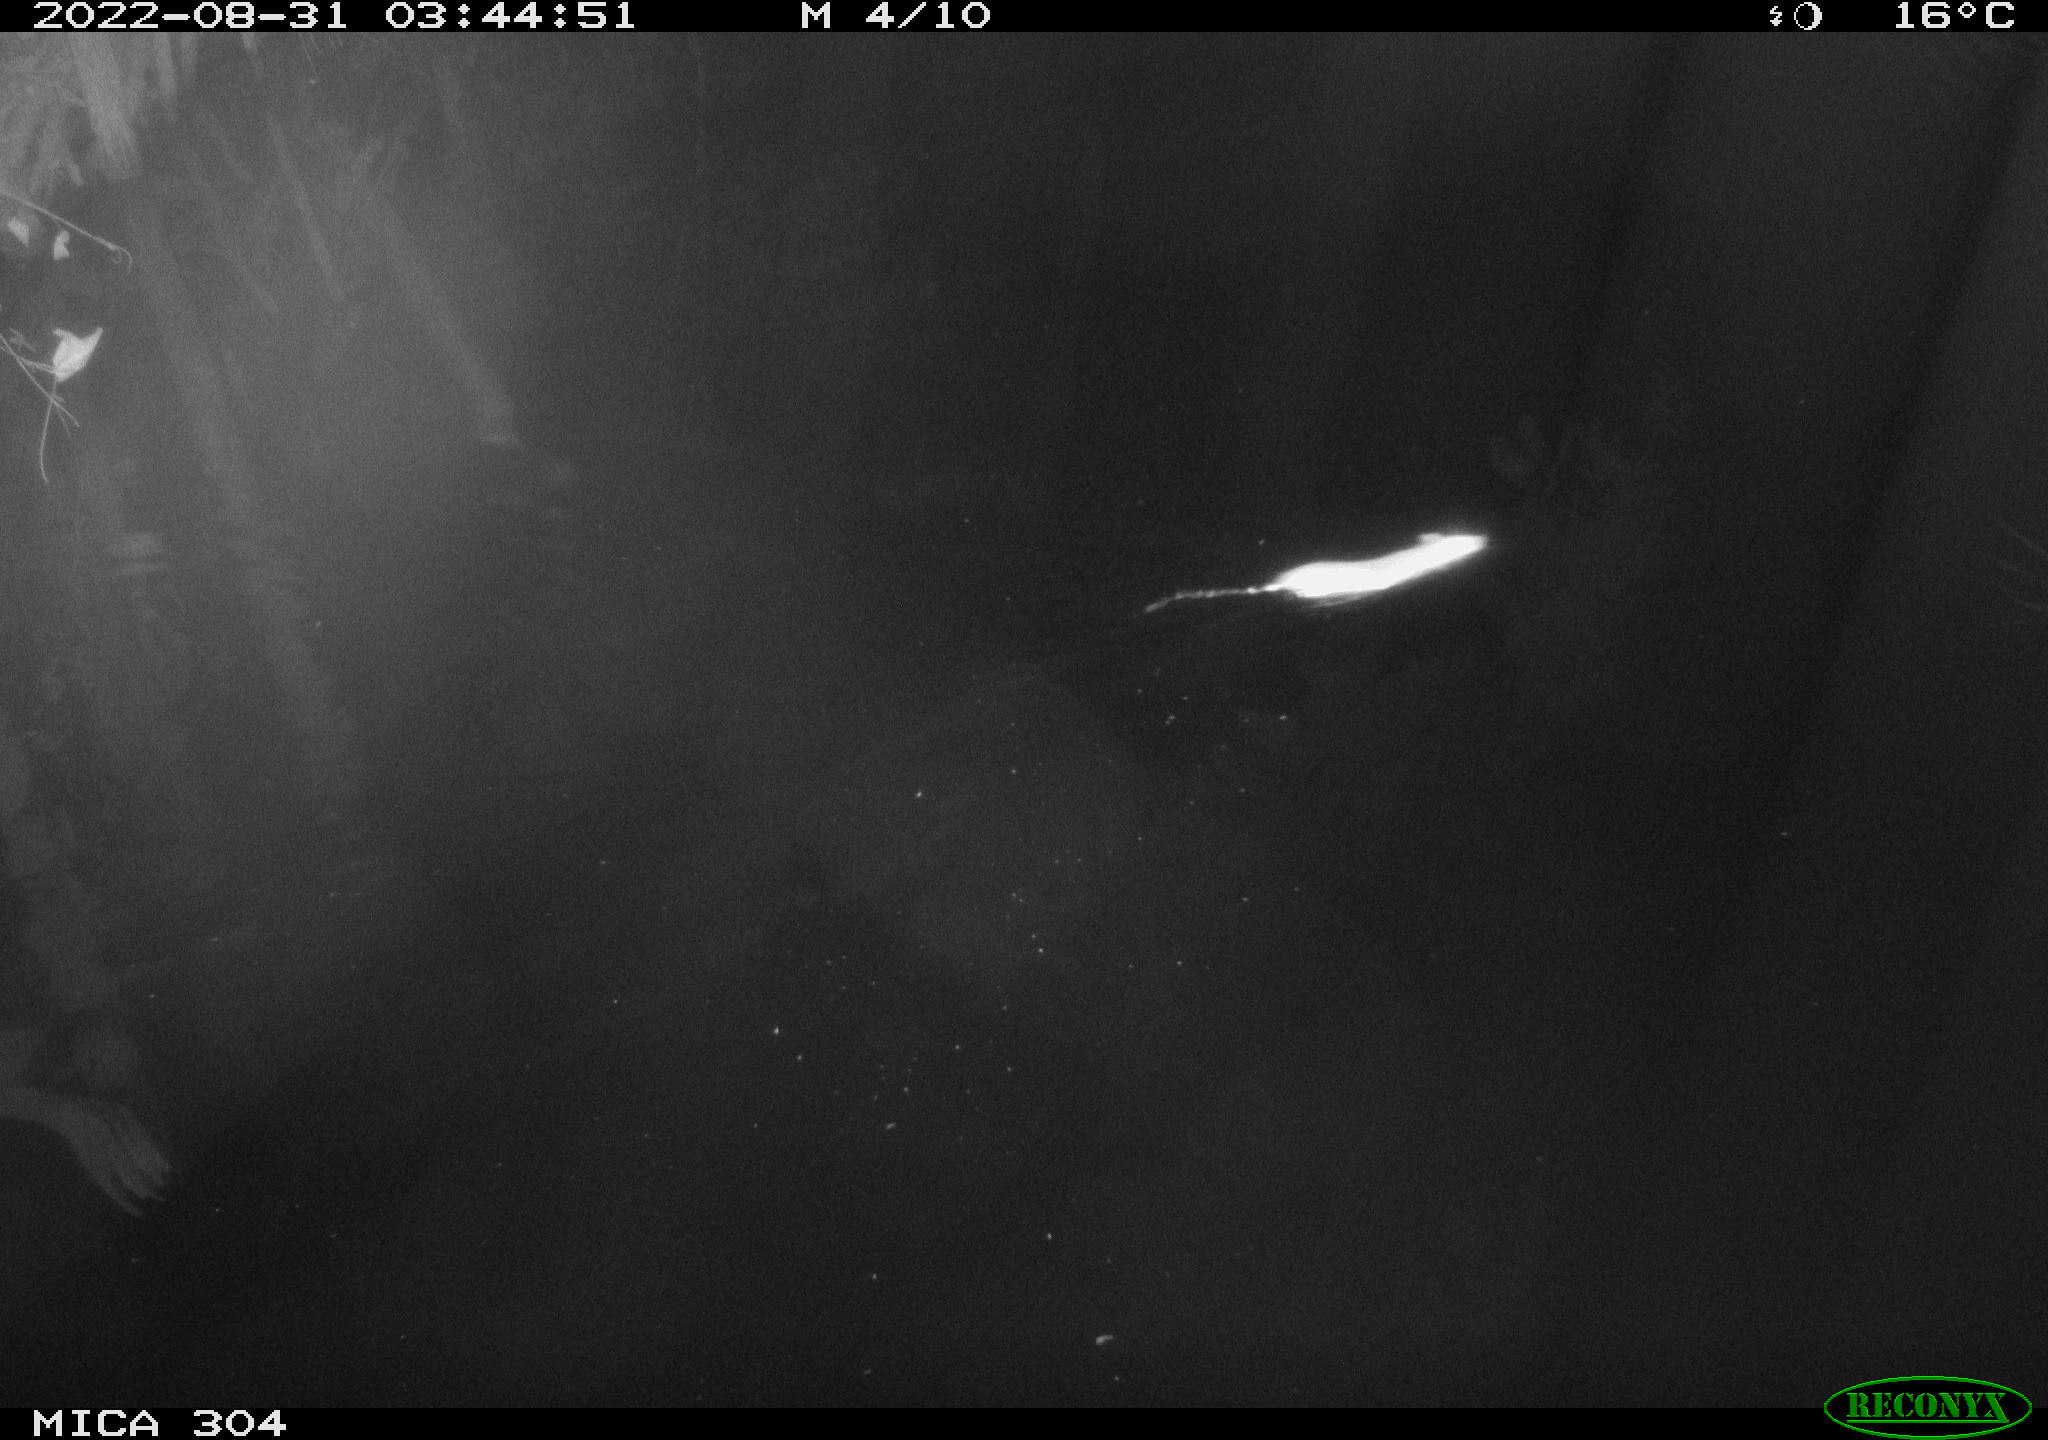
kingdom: Animalia
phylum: Chordata
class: Mammalia
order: Rodentia
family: Muridae
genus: Rattus
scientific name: Rattus norvegicus
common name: Brown rat
